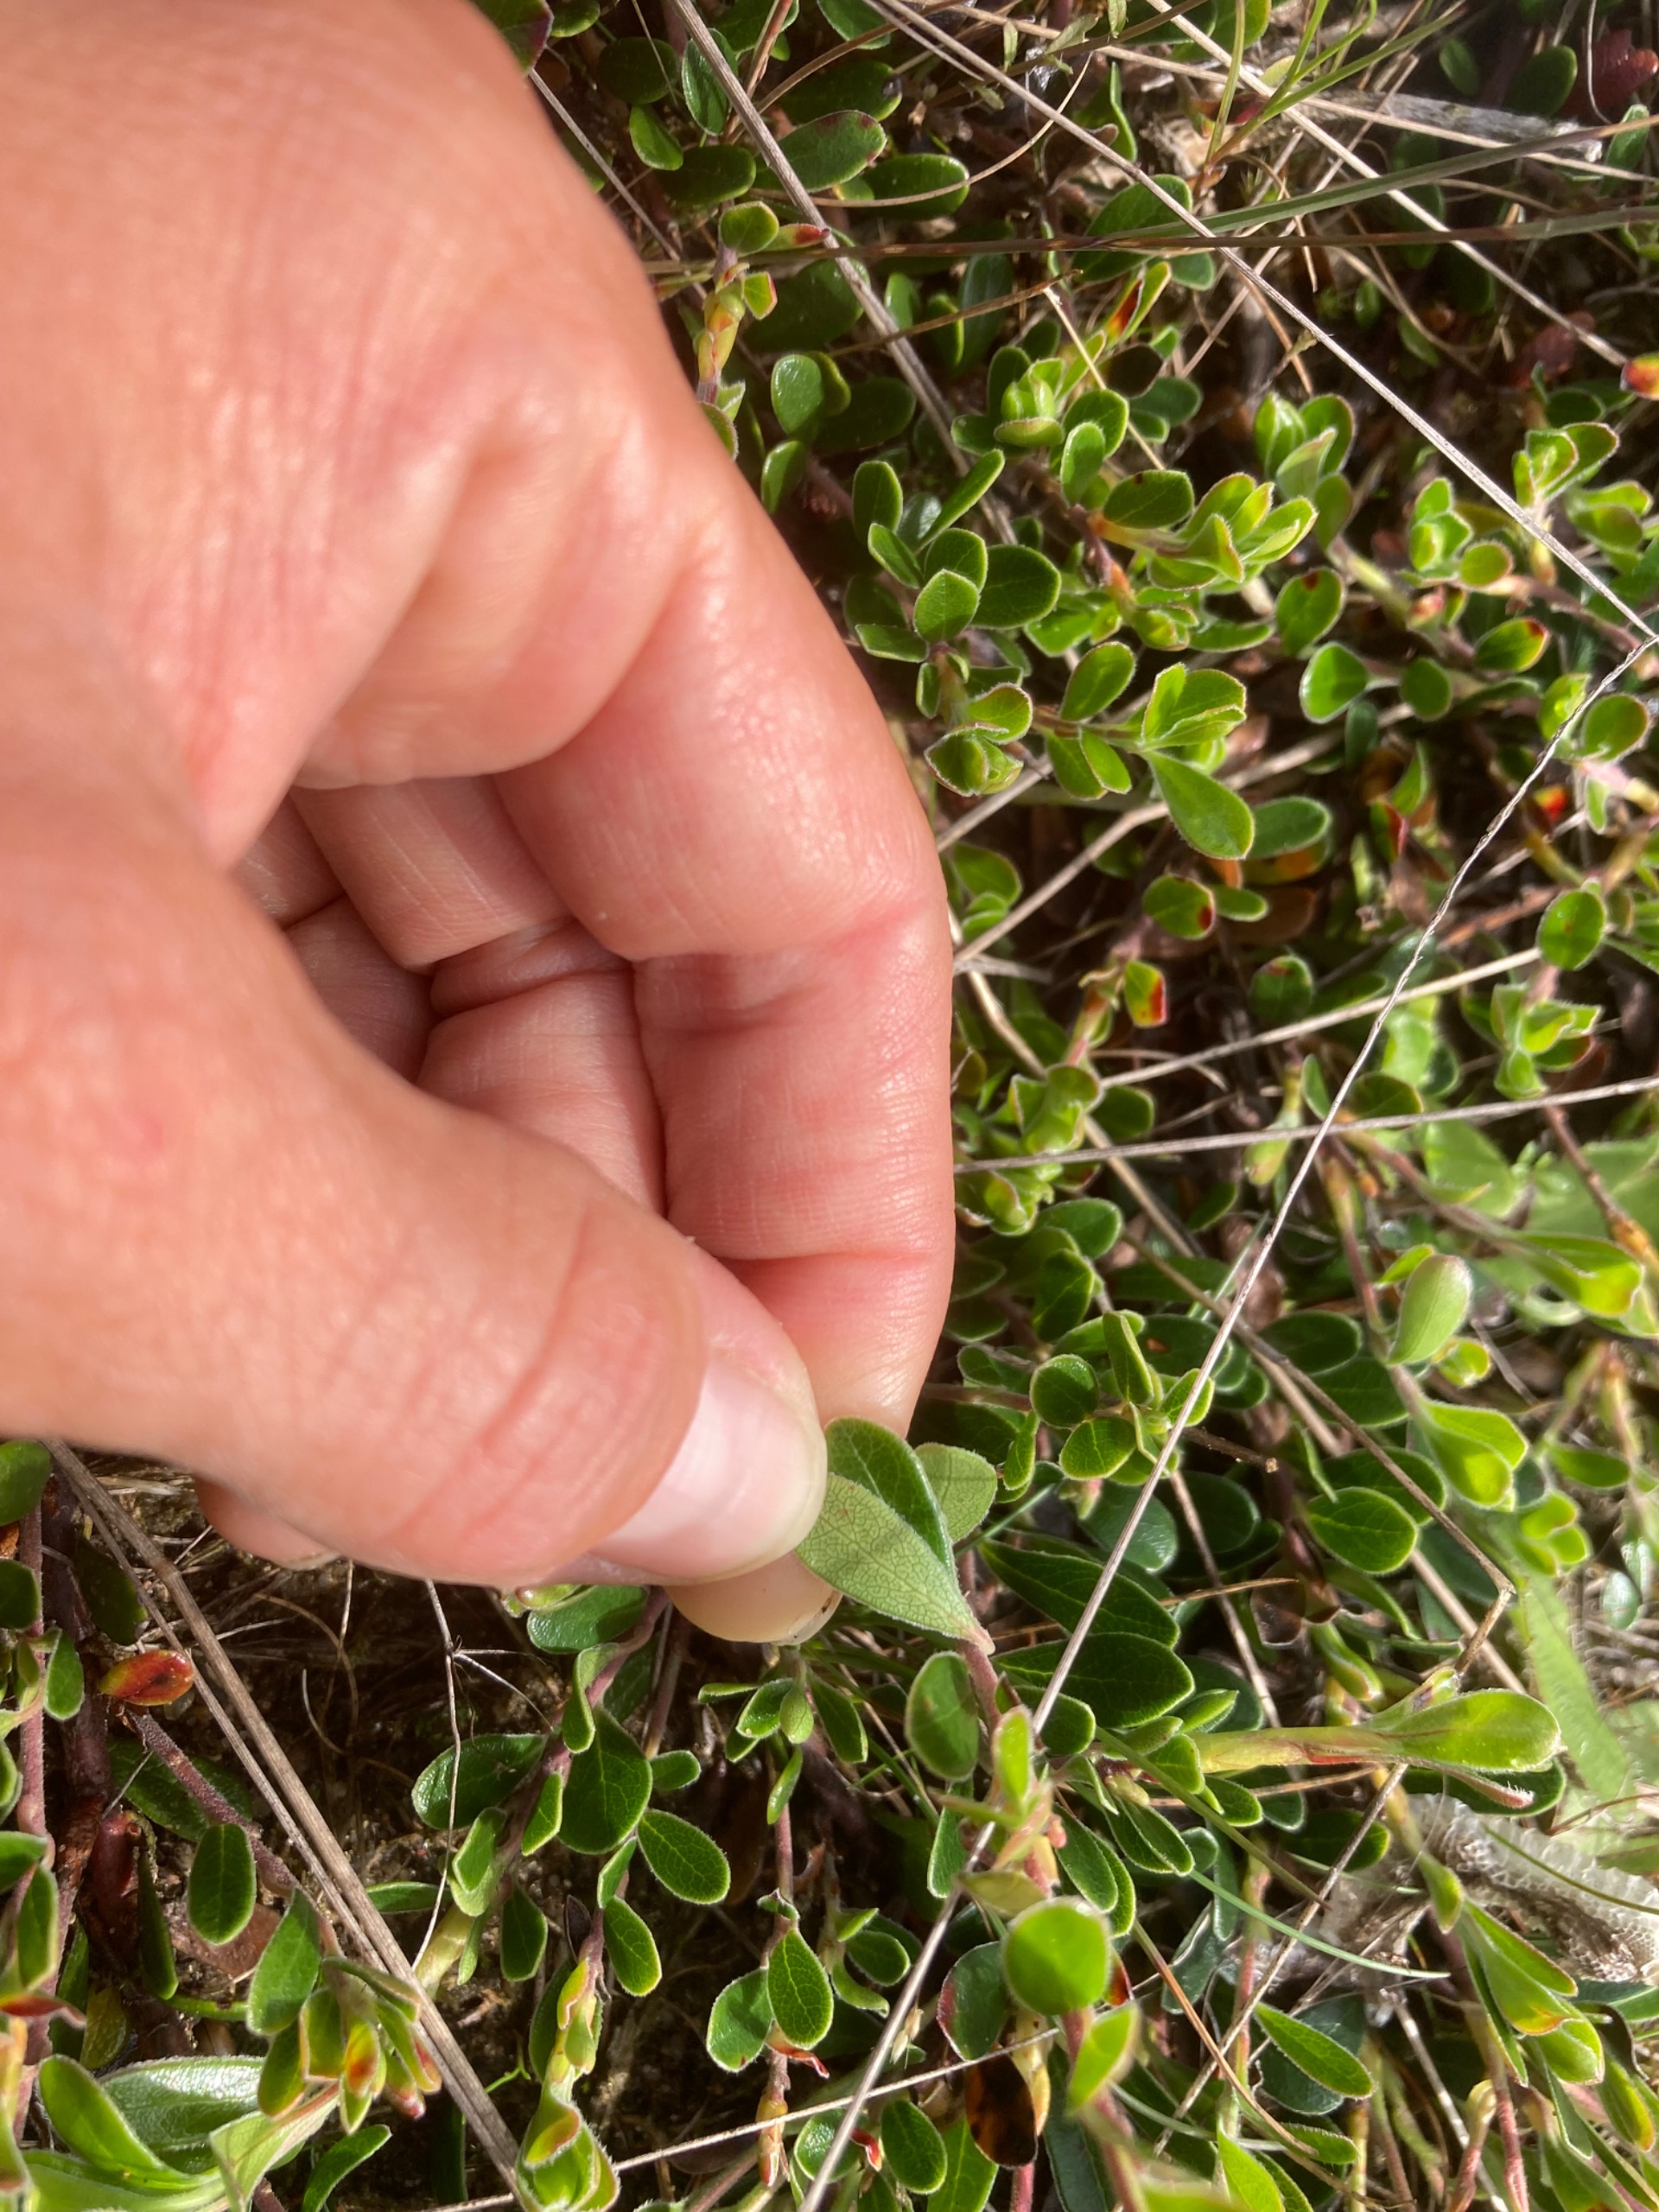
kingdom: Plantae
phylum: Tracheophyta
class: Magnoliopsida
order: Ericales
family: Ericaceae
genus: Arctostaphylos
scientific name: Arctostaphylos uva-ursi
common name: Hede-melbærris
